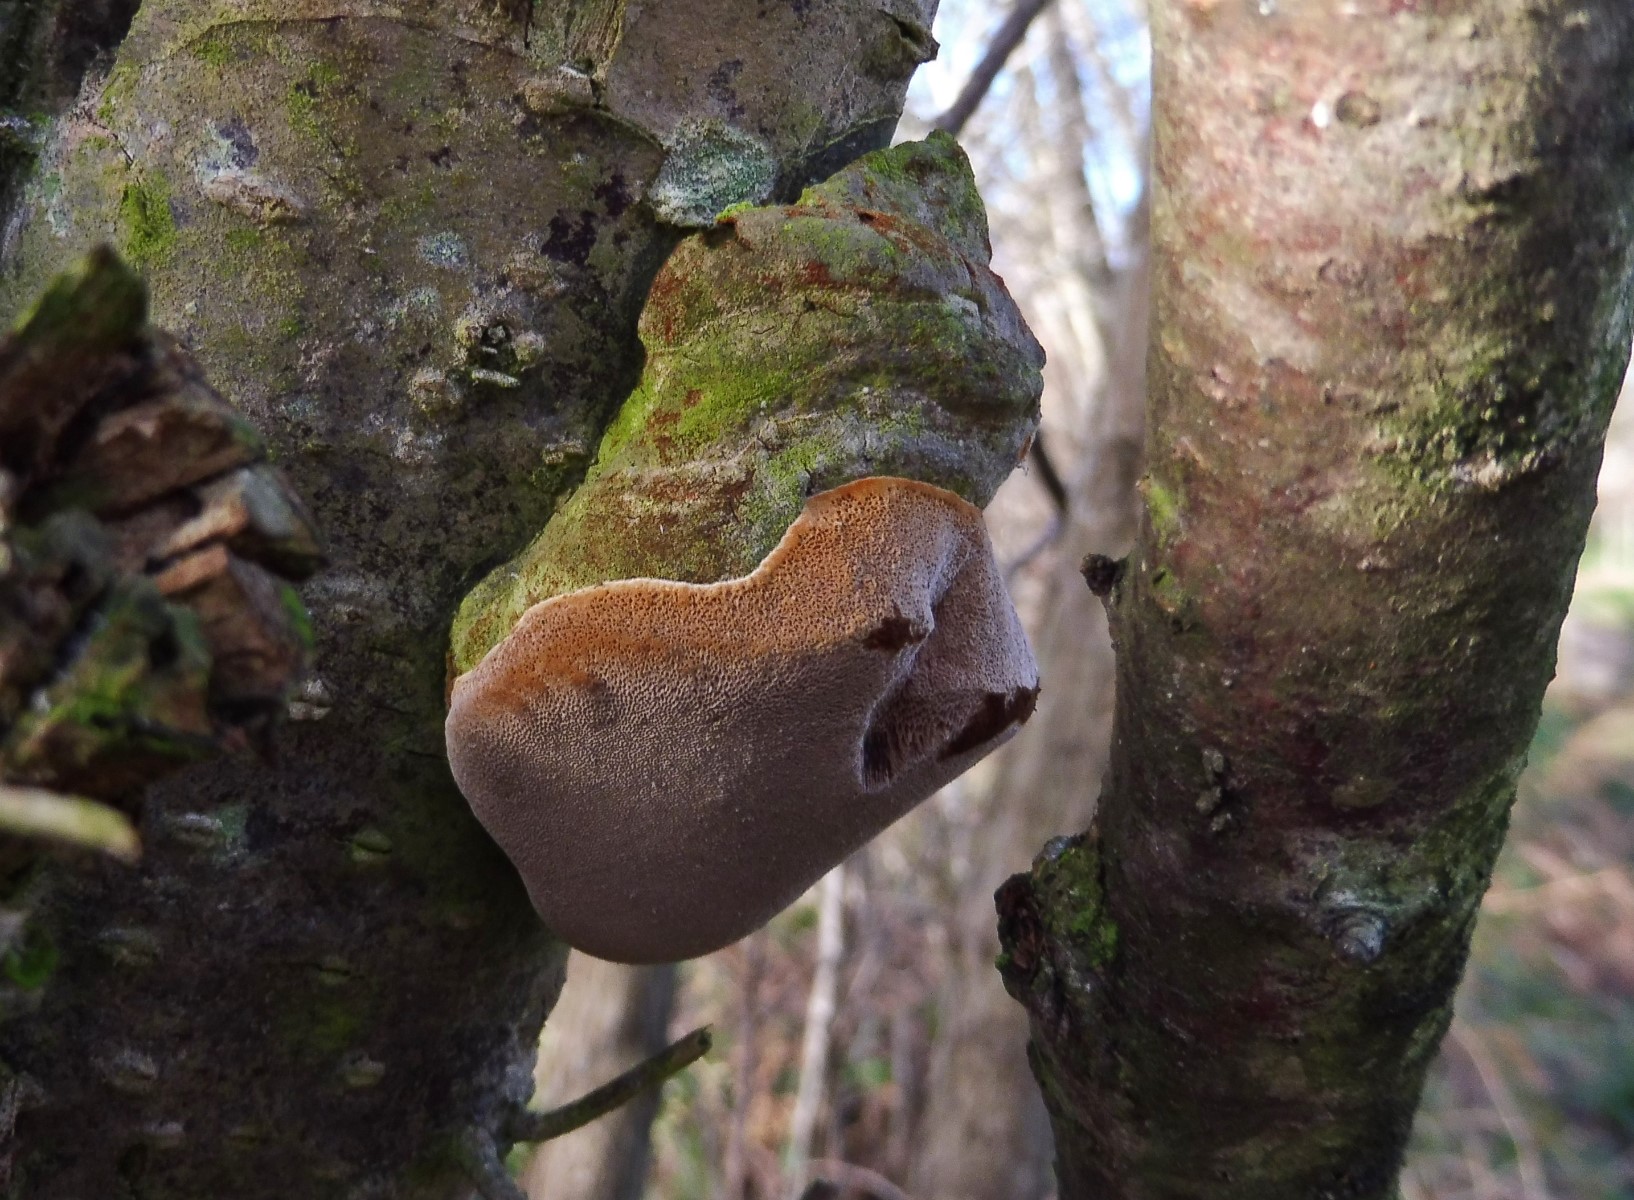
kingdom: Fungi
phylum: Basidiomycota
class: Agaricomycetes
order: Hymenochaetales
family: Hymenochaetaceae
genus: Phellinus
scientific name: Phellinus pomaceus
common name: blomme-ildporesvamp
